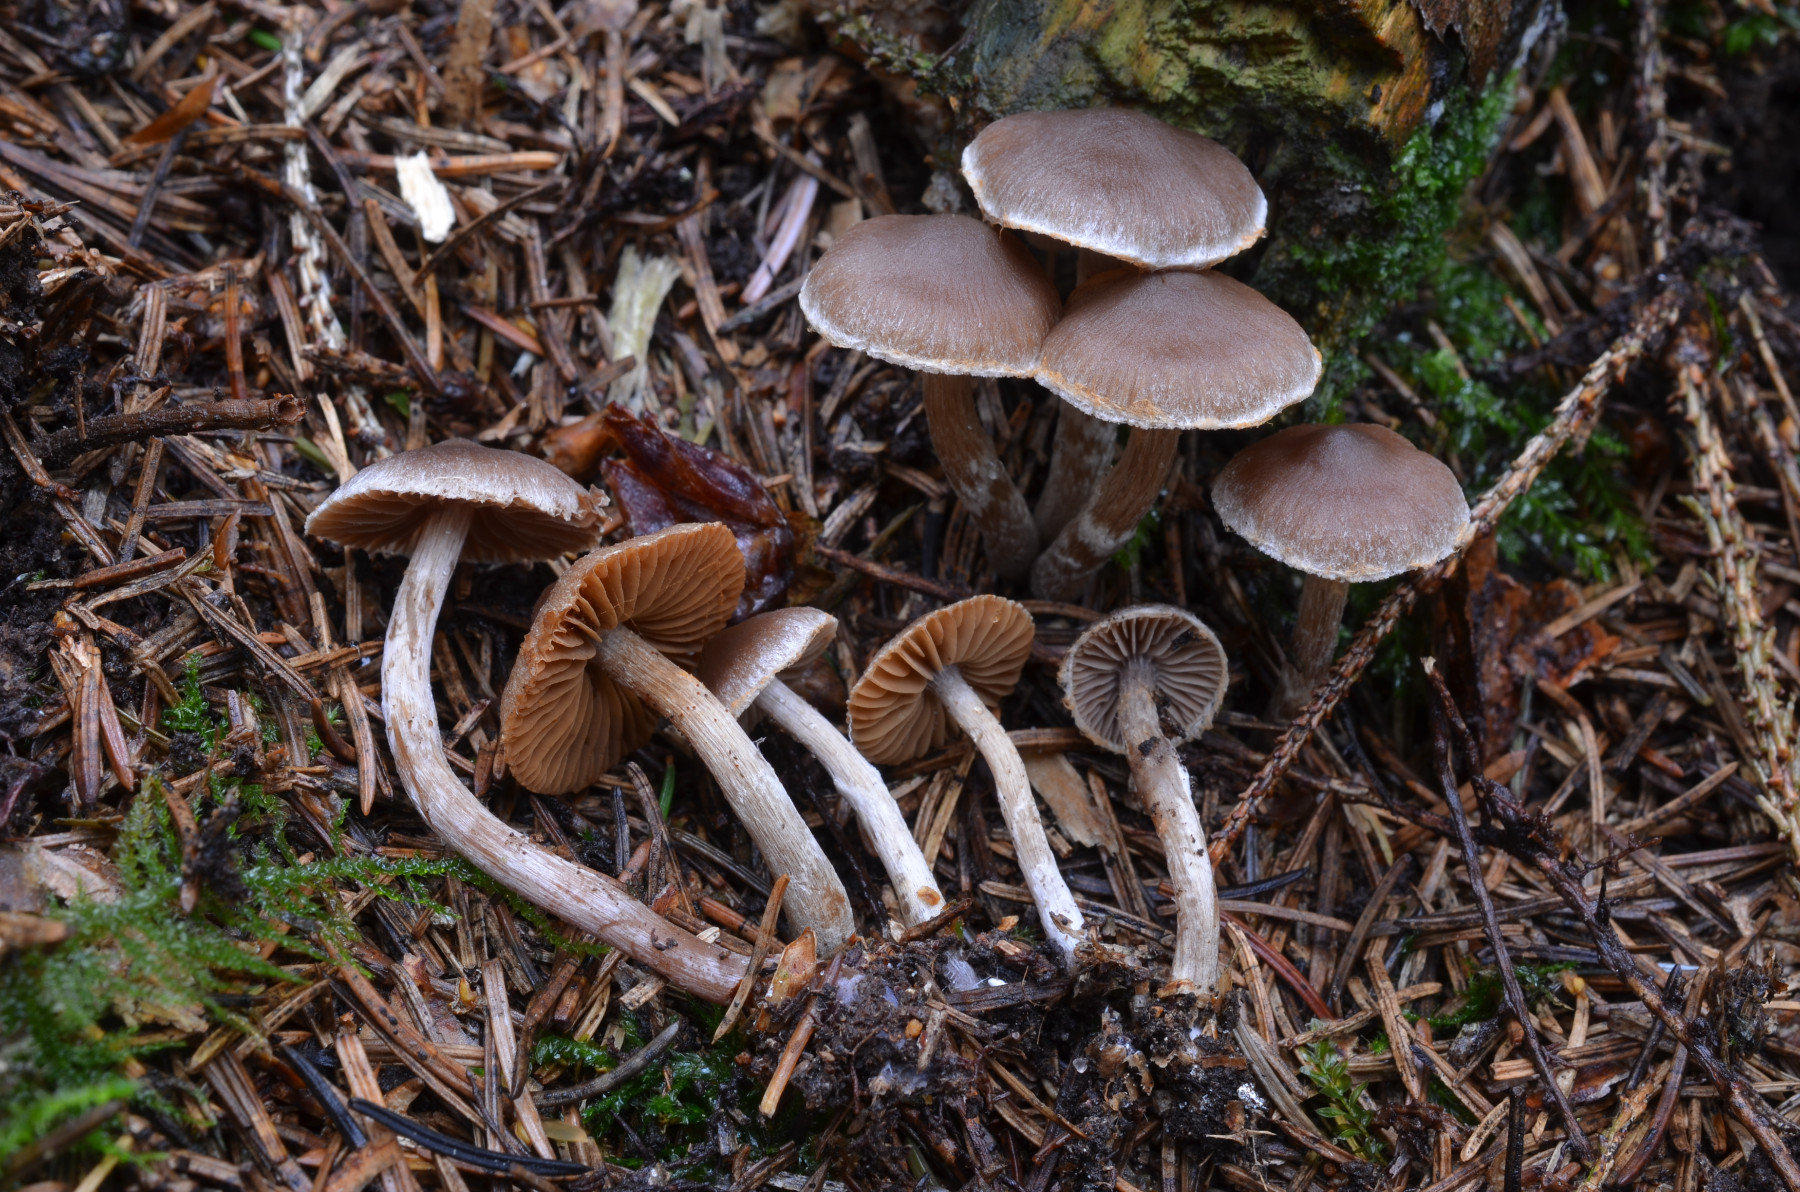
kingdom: Fungi
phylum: Basidiomycota
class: Agaricomycetes
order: Agaricales
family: Cortinariaceae
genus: Cortinarius
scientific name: Cortinarius pilatii
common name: Piláts slørhat
